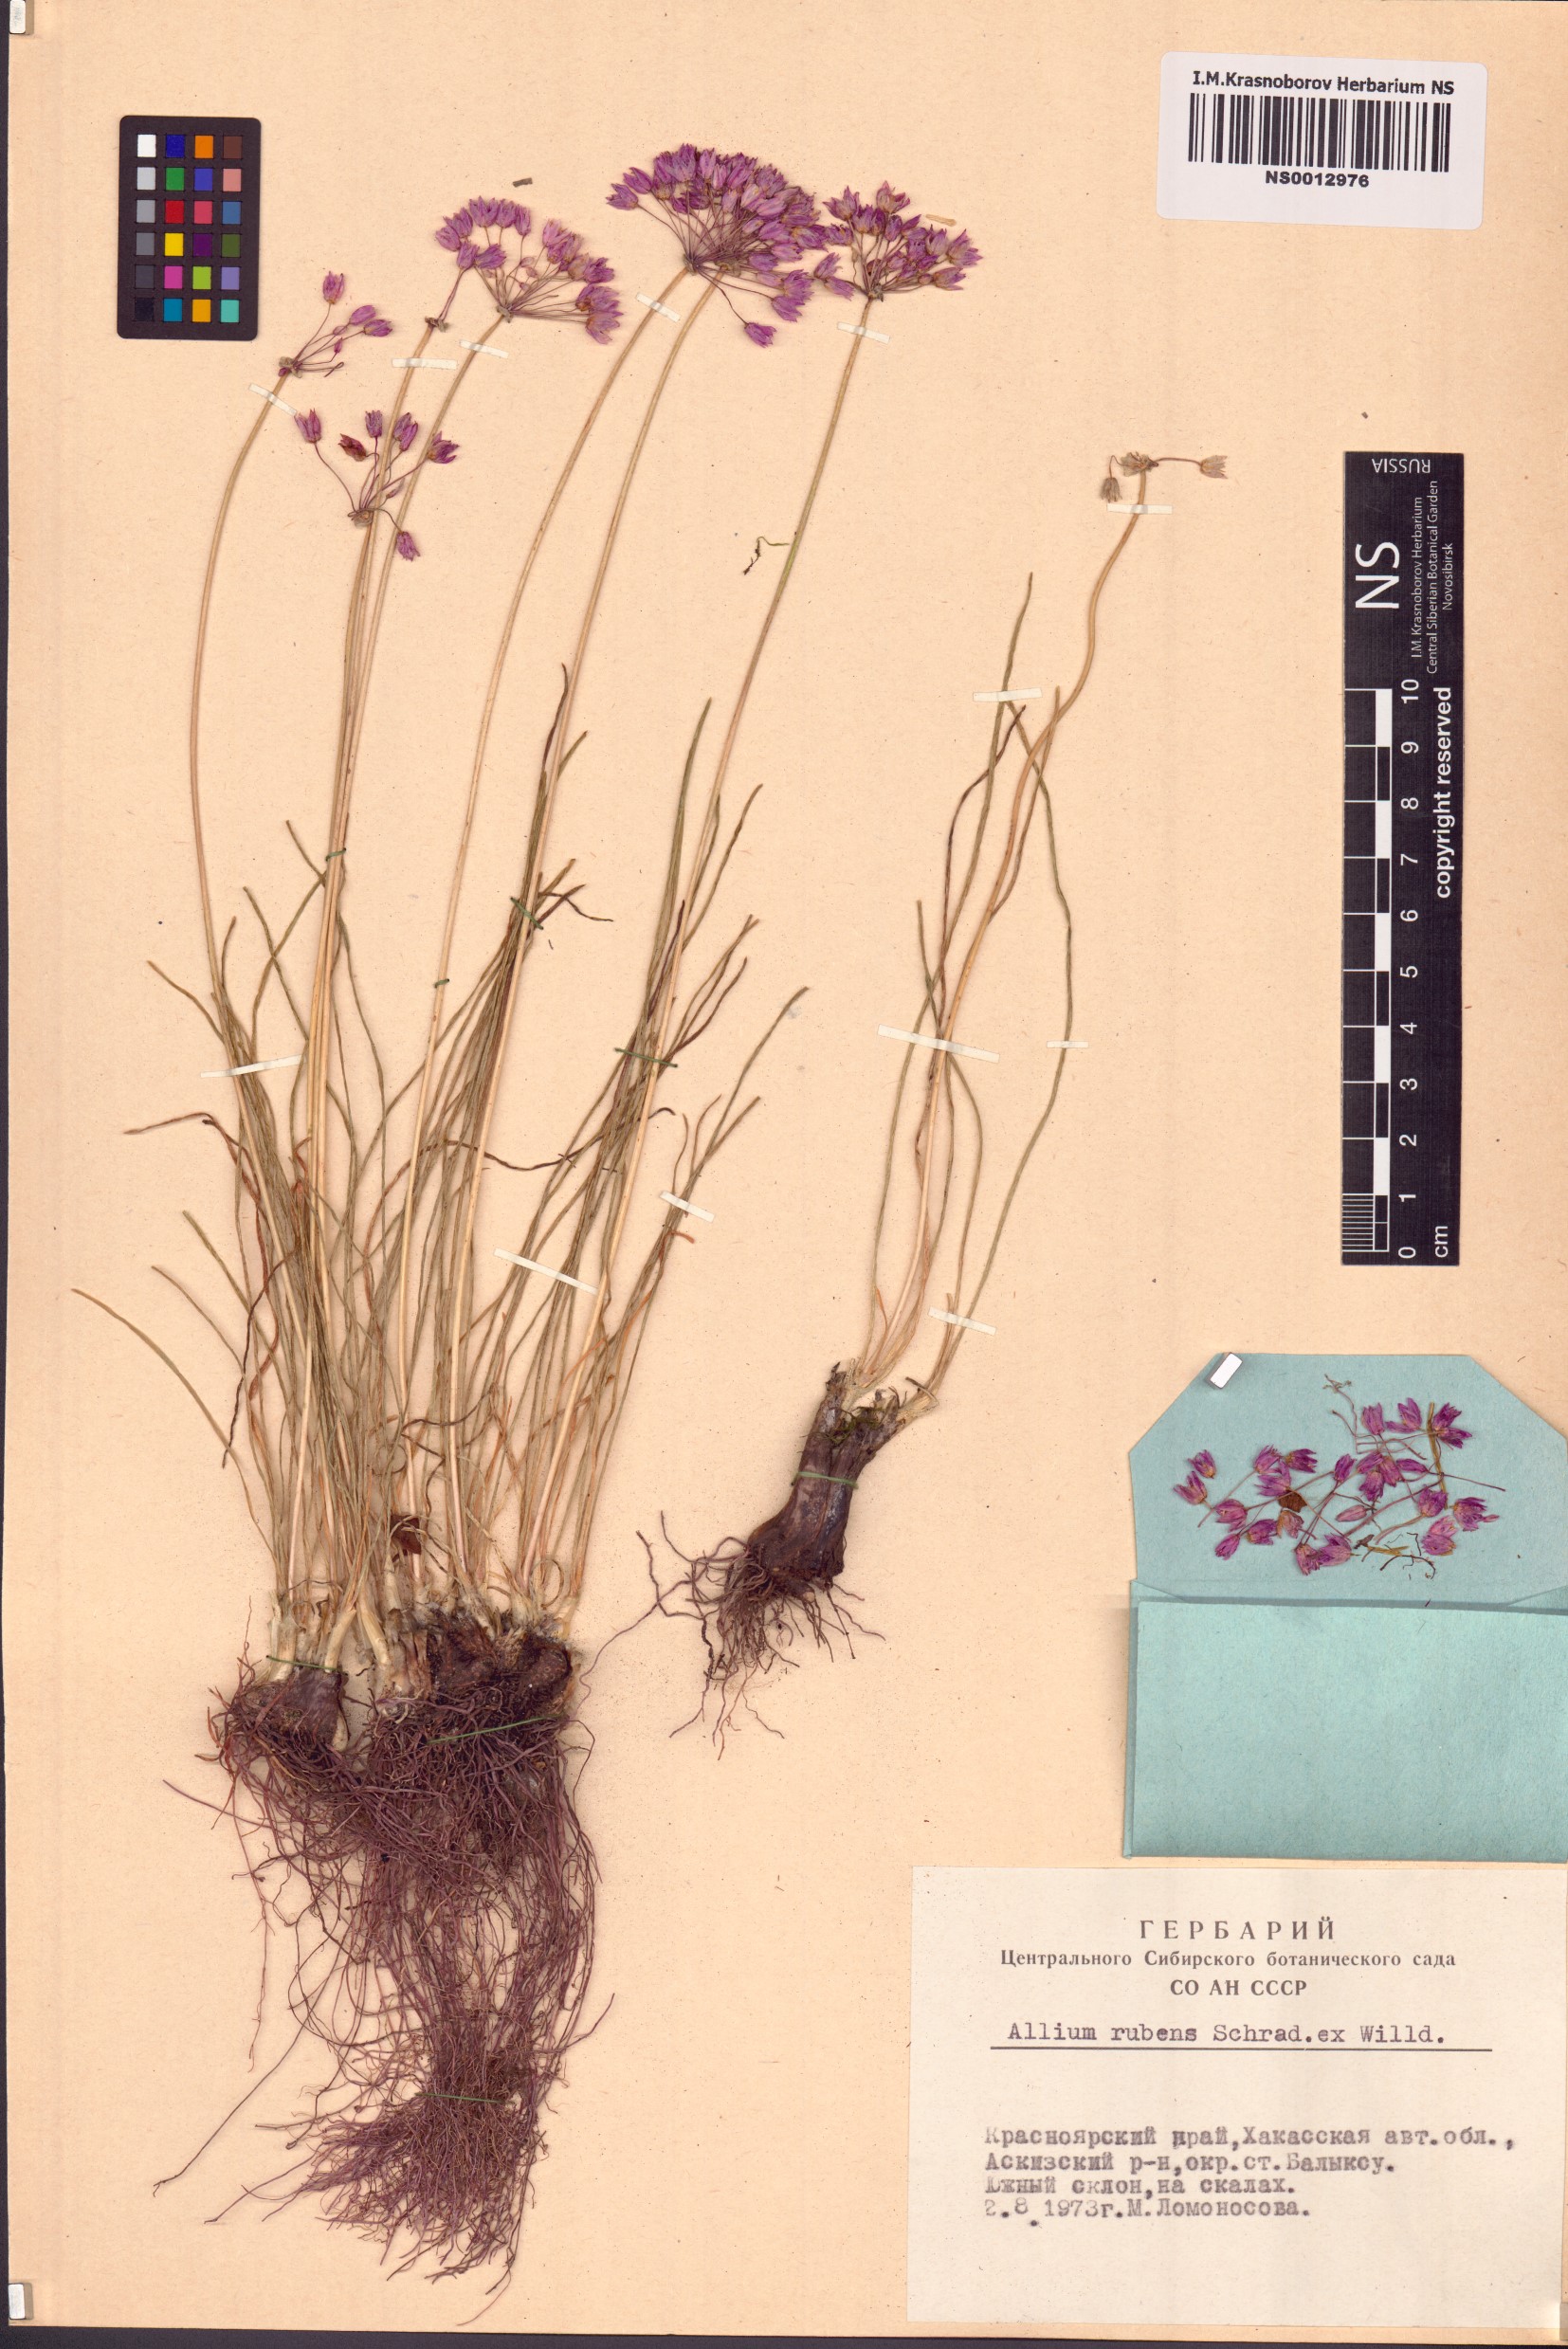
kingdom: Plantae
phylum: Tracheophyta
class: Liliopsida
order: Asparagales
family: Amaryllidaceae
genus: Allium
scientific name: Allium rubens
